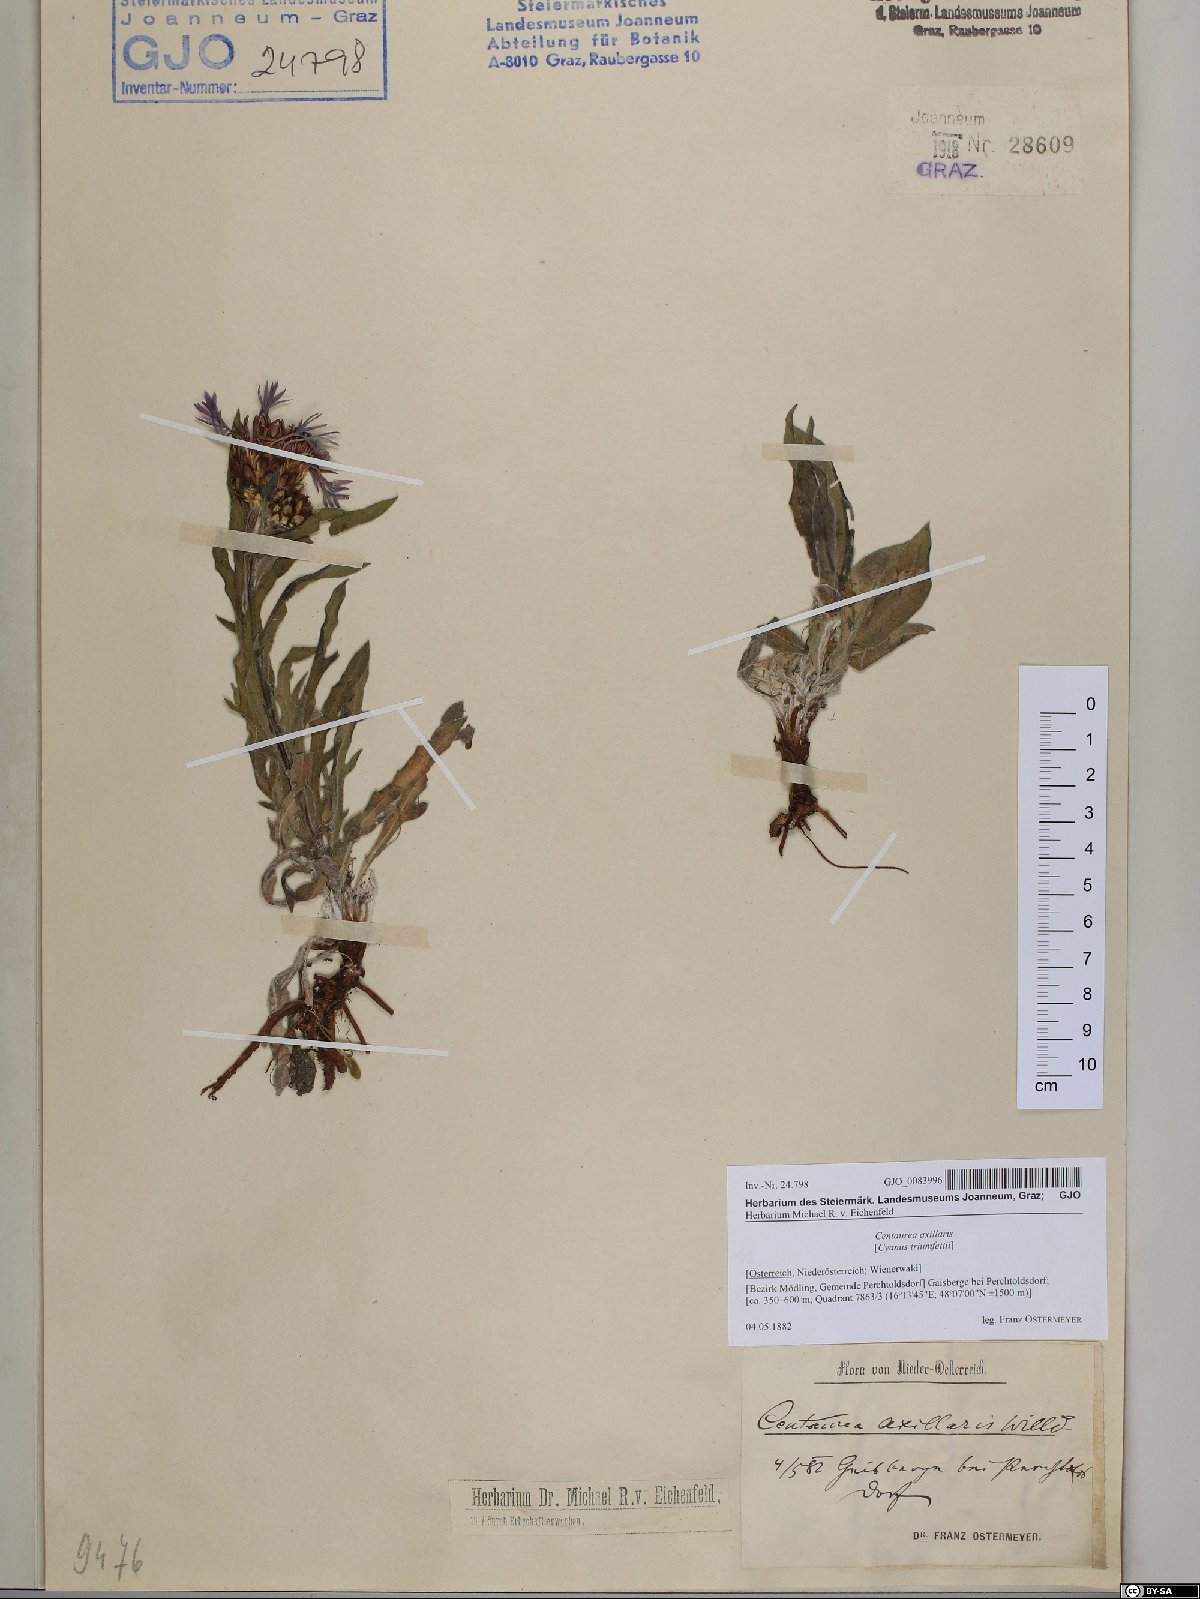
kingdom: Plantae
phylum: Tracheophyta
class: Magnoliopsida
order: Asterales
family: Asteraceae
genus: Centaurea
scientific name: Centaurea triumfettii
